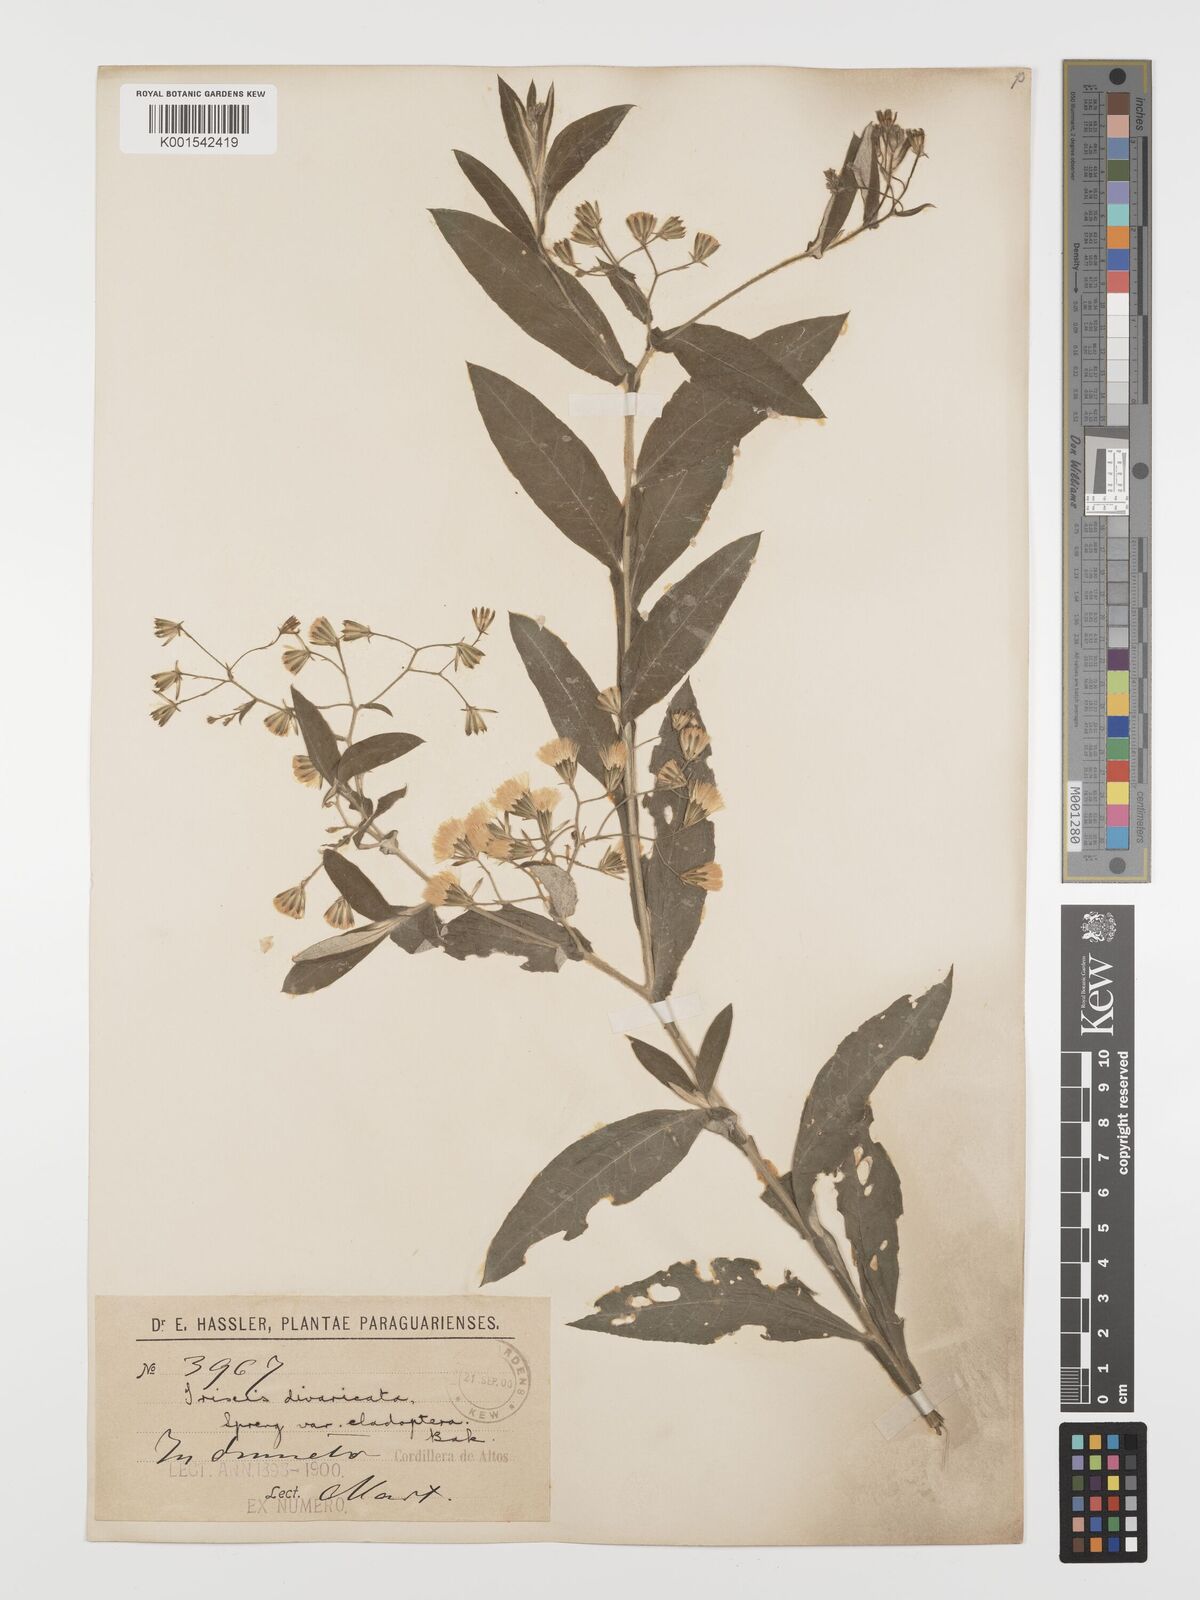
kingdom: Plantae
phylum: Tracheophyta
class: Magnoliopsida
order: Asterales
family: Asteraceae
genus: Trixis
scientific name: Trixis divaricata
